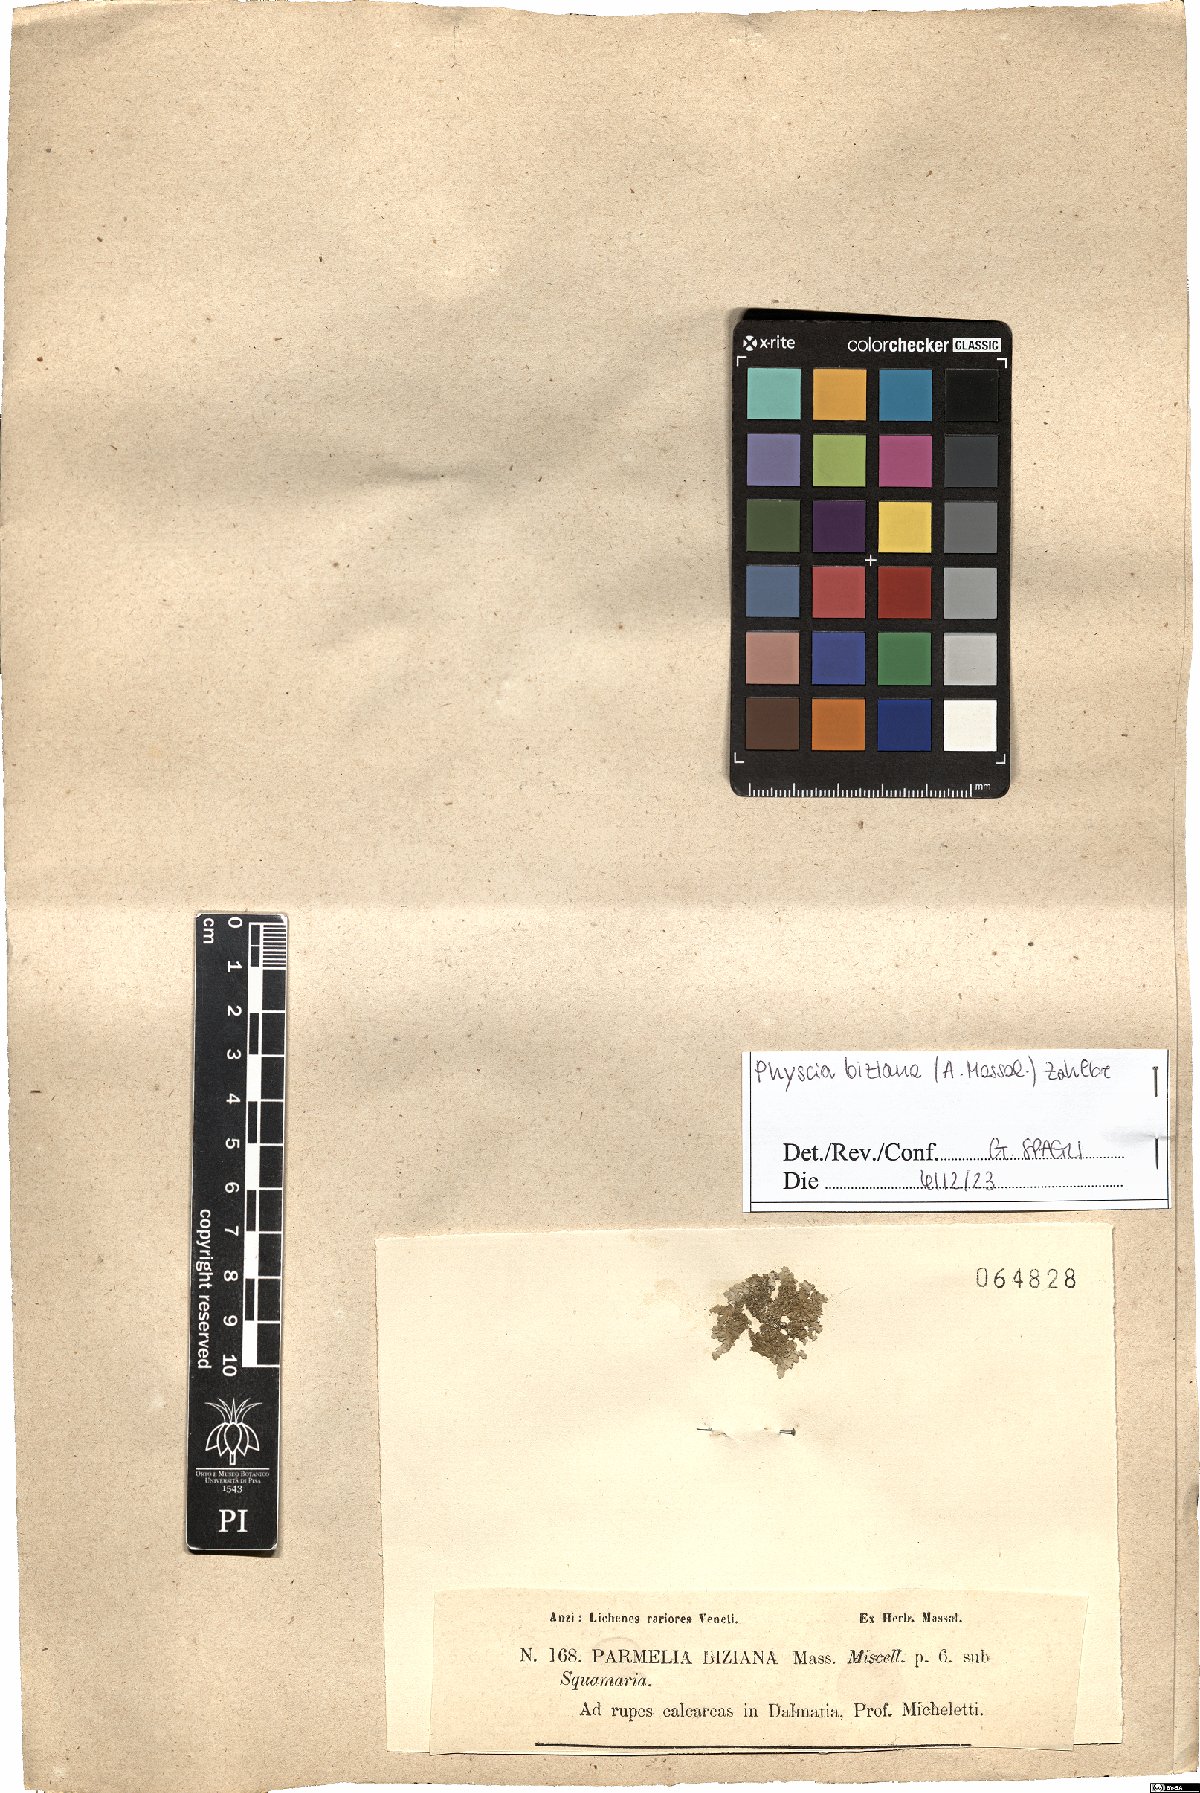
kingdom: Fungi
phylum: Ascomycota
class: Lecanoromycetes
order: Caliciales
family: Physciaceae
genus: Physcia
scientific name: Physcia biziana
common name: Frosted rosette lichen
